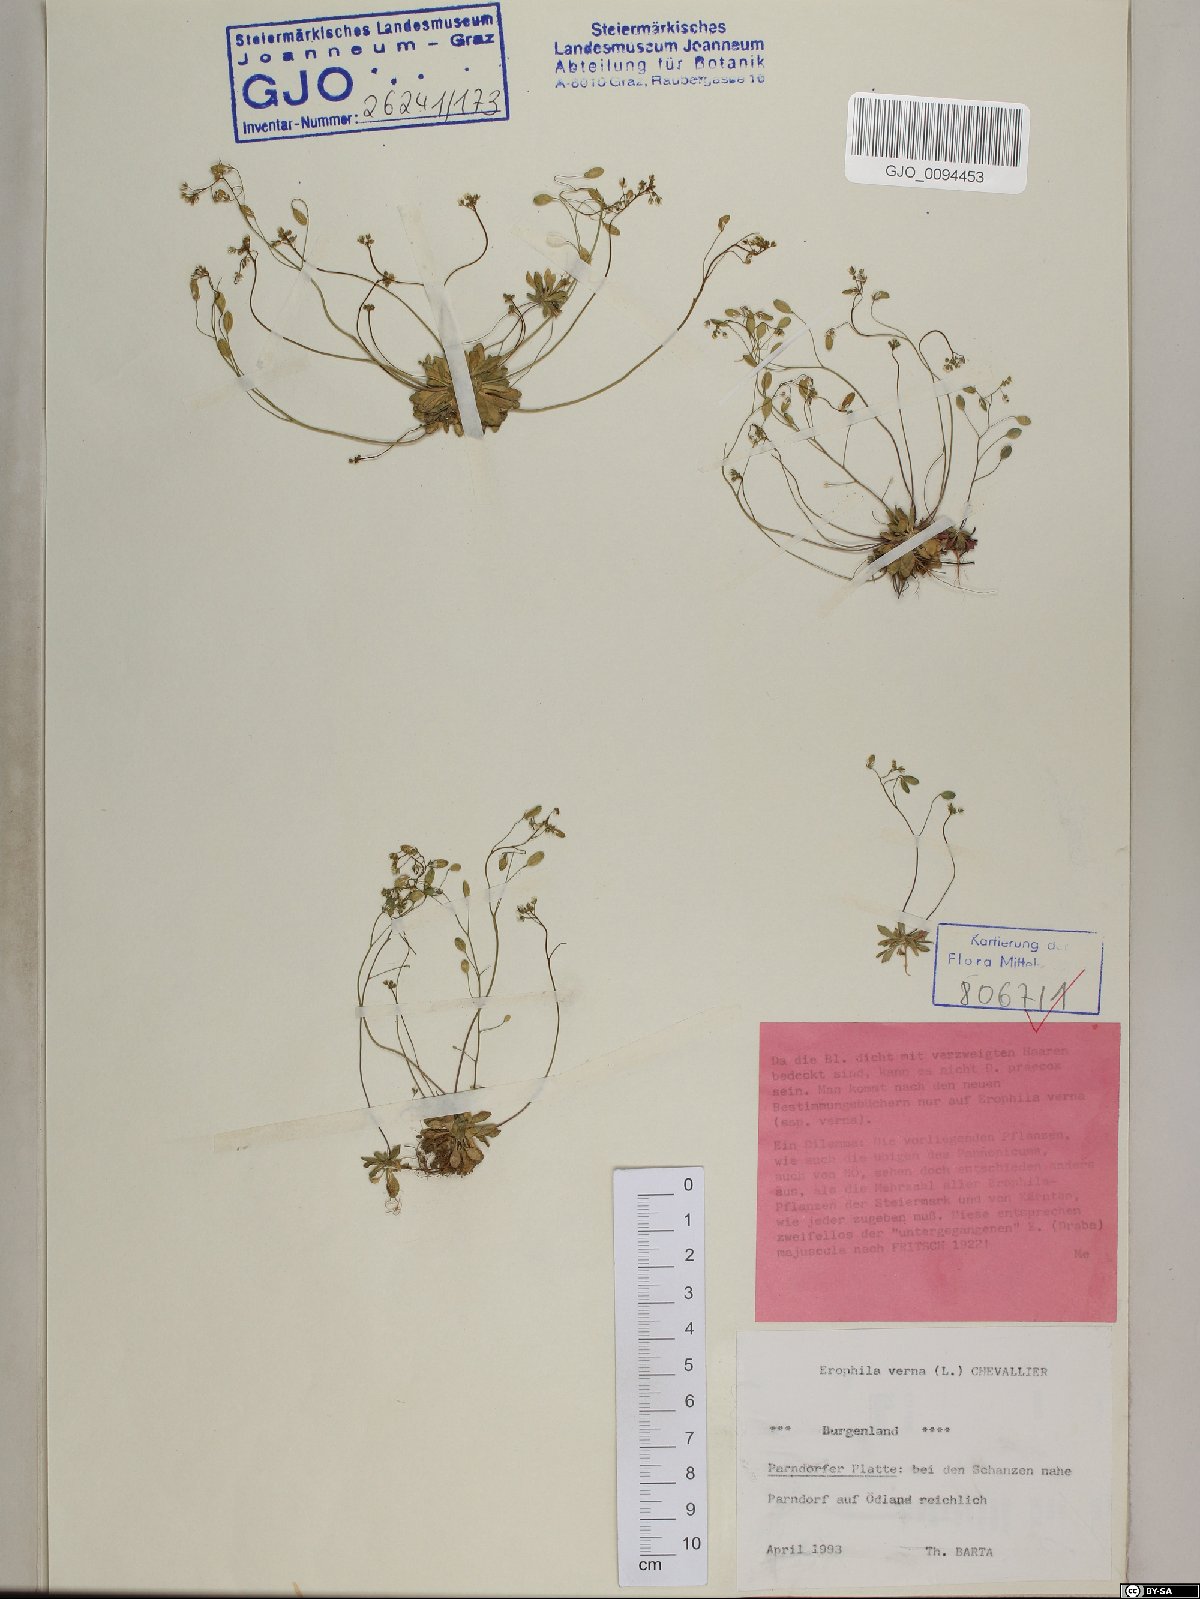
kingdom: Plantae
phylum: Tracheophyta
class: Magnoliopsida
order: Brassicales
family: Brassicaceae
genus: Draba
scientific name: Draba verna
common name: Spring draba
